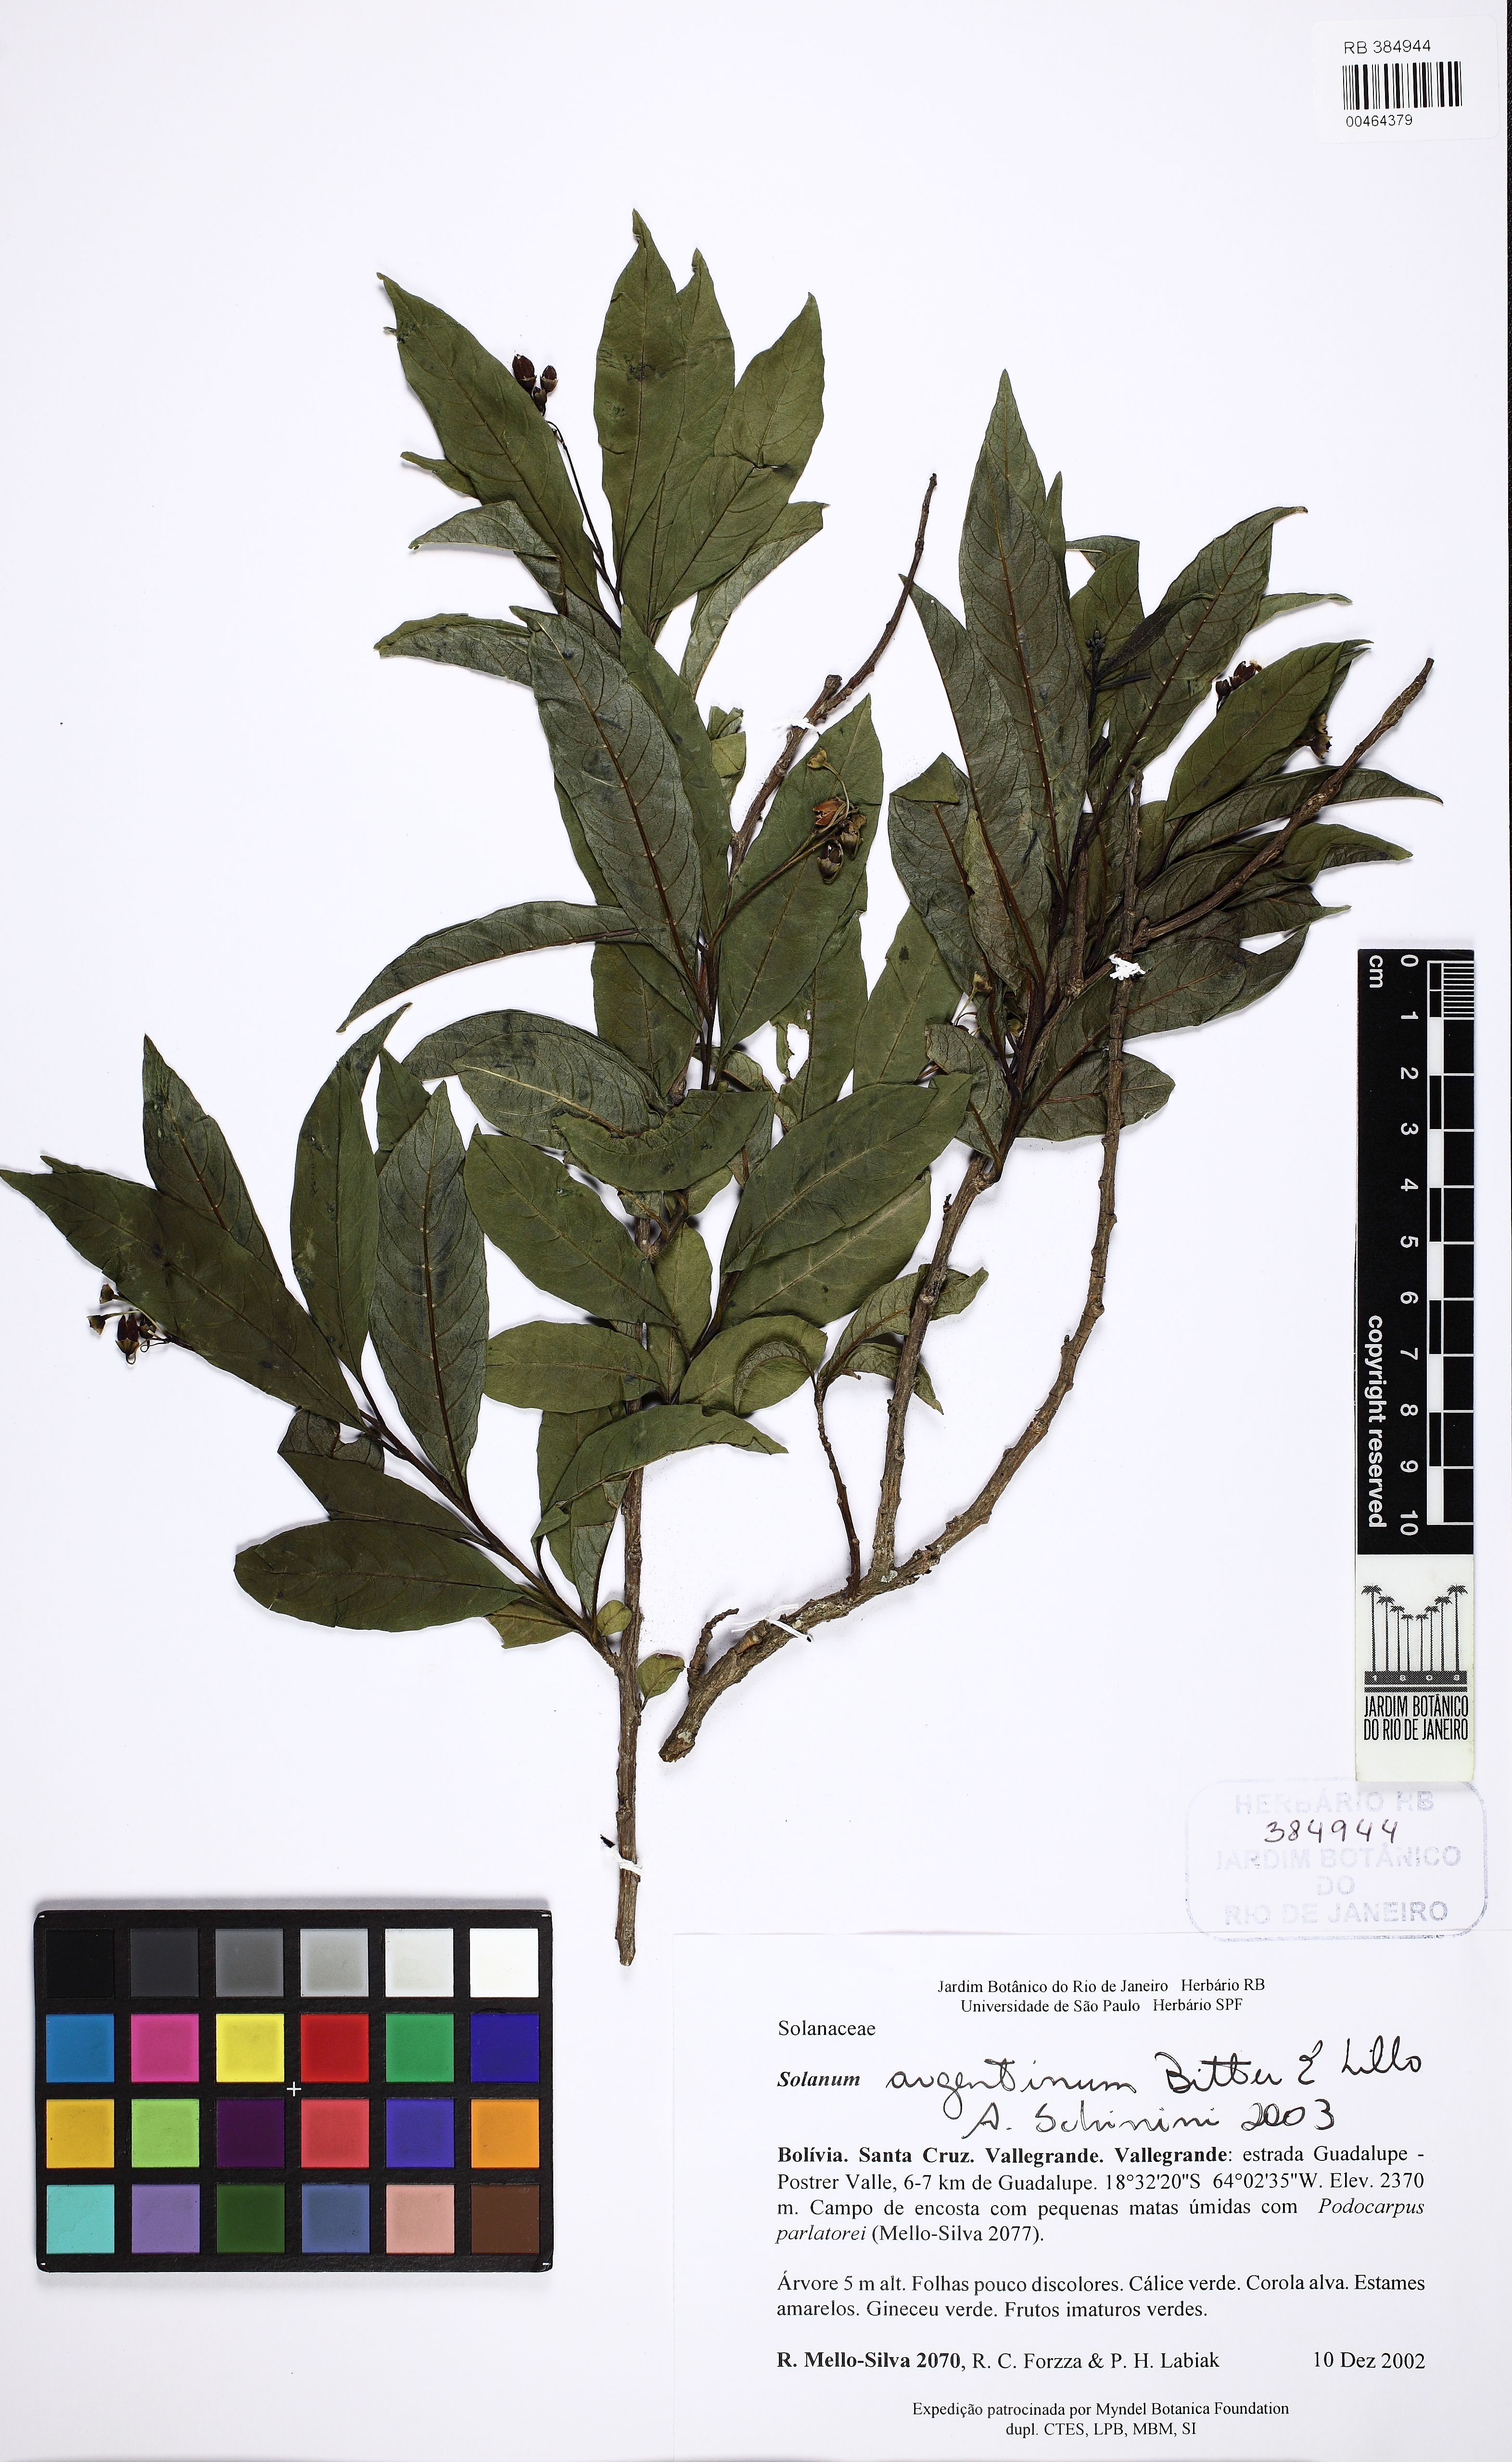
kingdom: Plantae
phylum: Tracheophyta
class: Magnoliopsida
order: Solanales
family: Solanaceae
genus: Solanum
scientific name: Solanum argentinum
